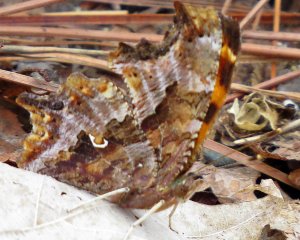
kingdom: Animalia
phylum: Arthropoda
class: Insecta
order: Lepidoptera
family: Nymphalidae
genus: Polygonia
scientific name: Polygonia comma
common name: Eastern Comma
